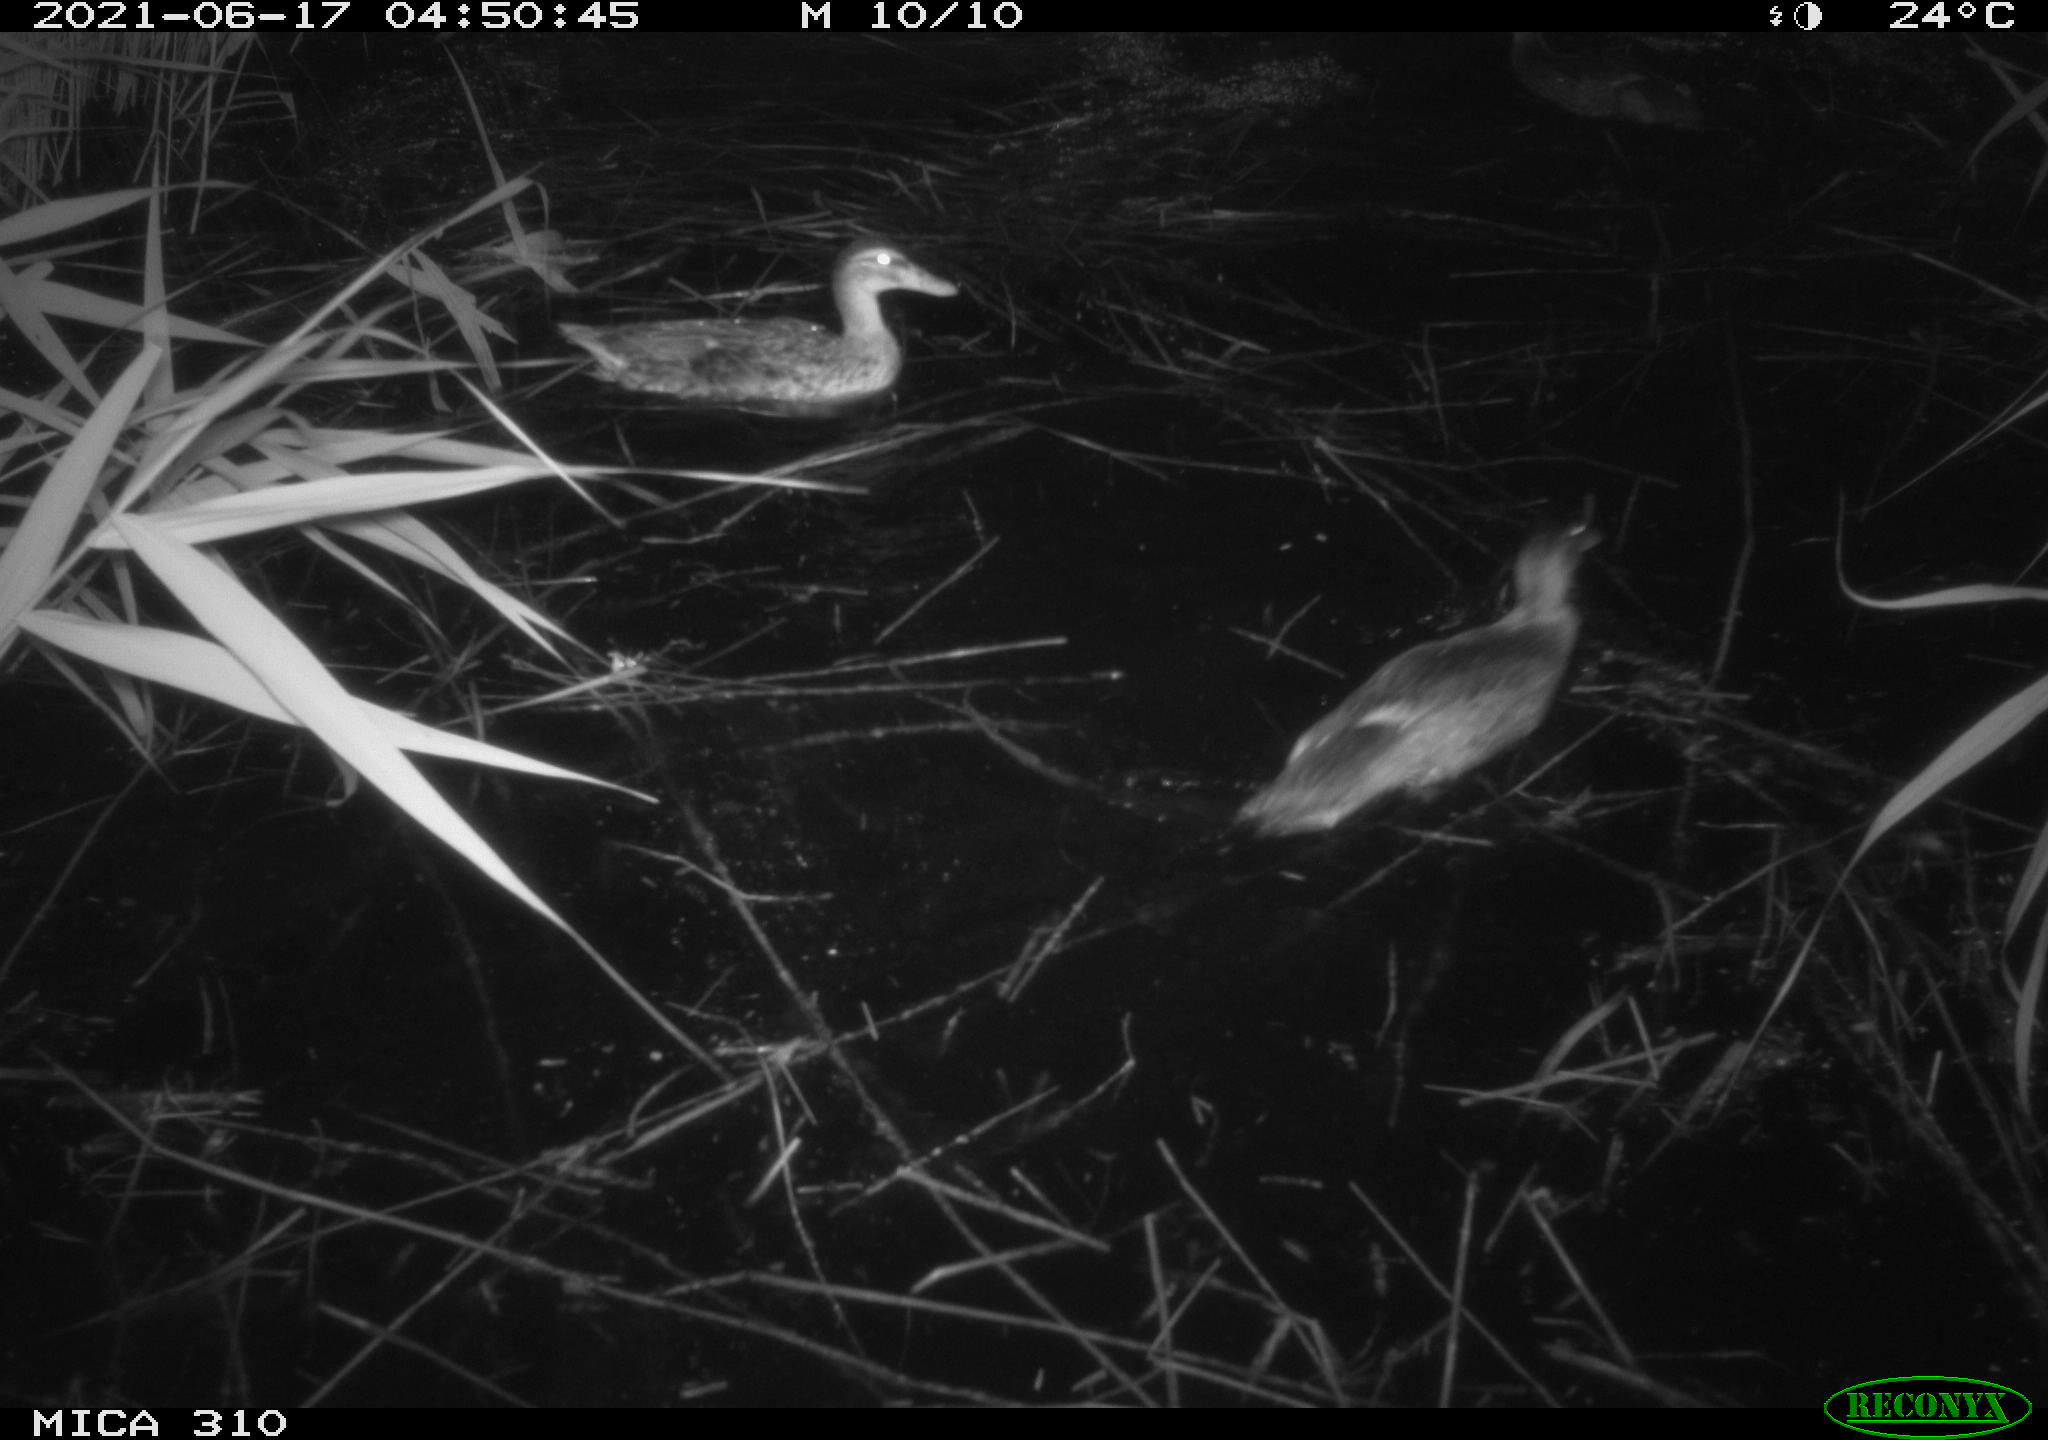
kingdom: Animalia
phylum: Chordata
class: Aves
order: Anseriformes
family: Anatidae
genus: Anas
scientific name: Anas
